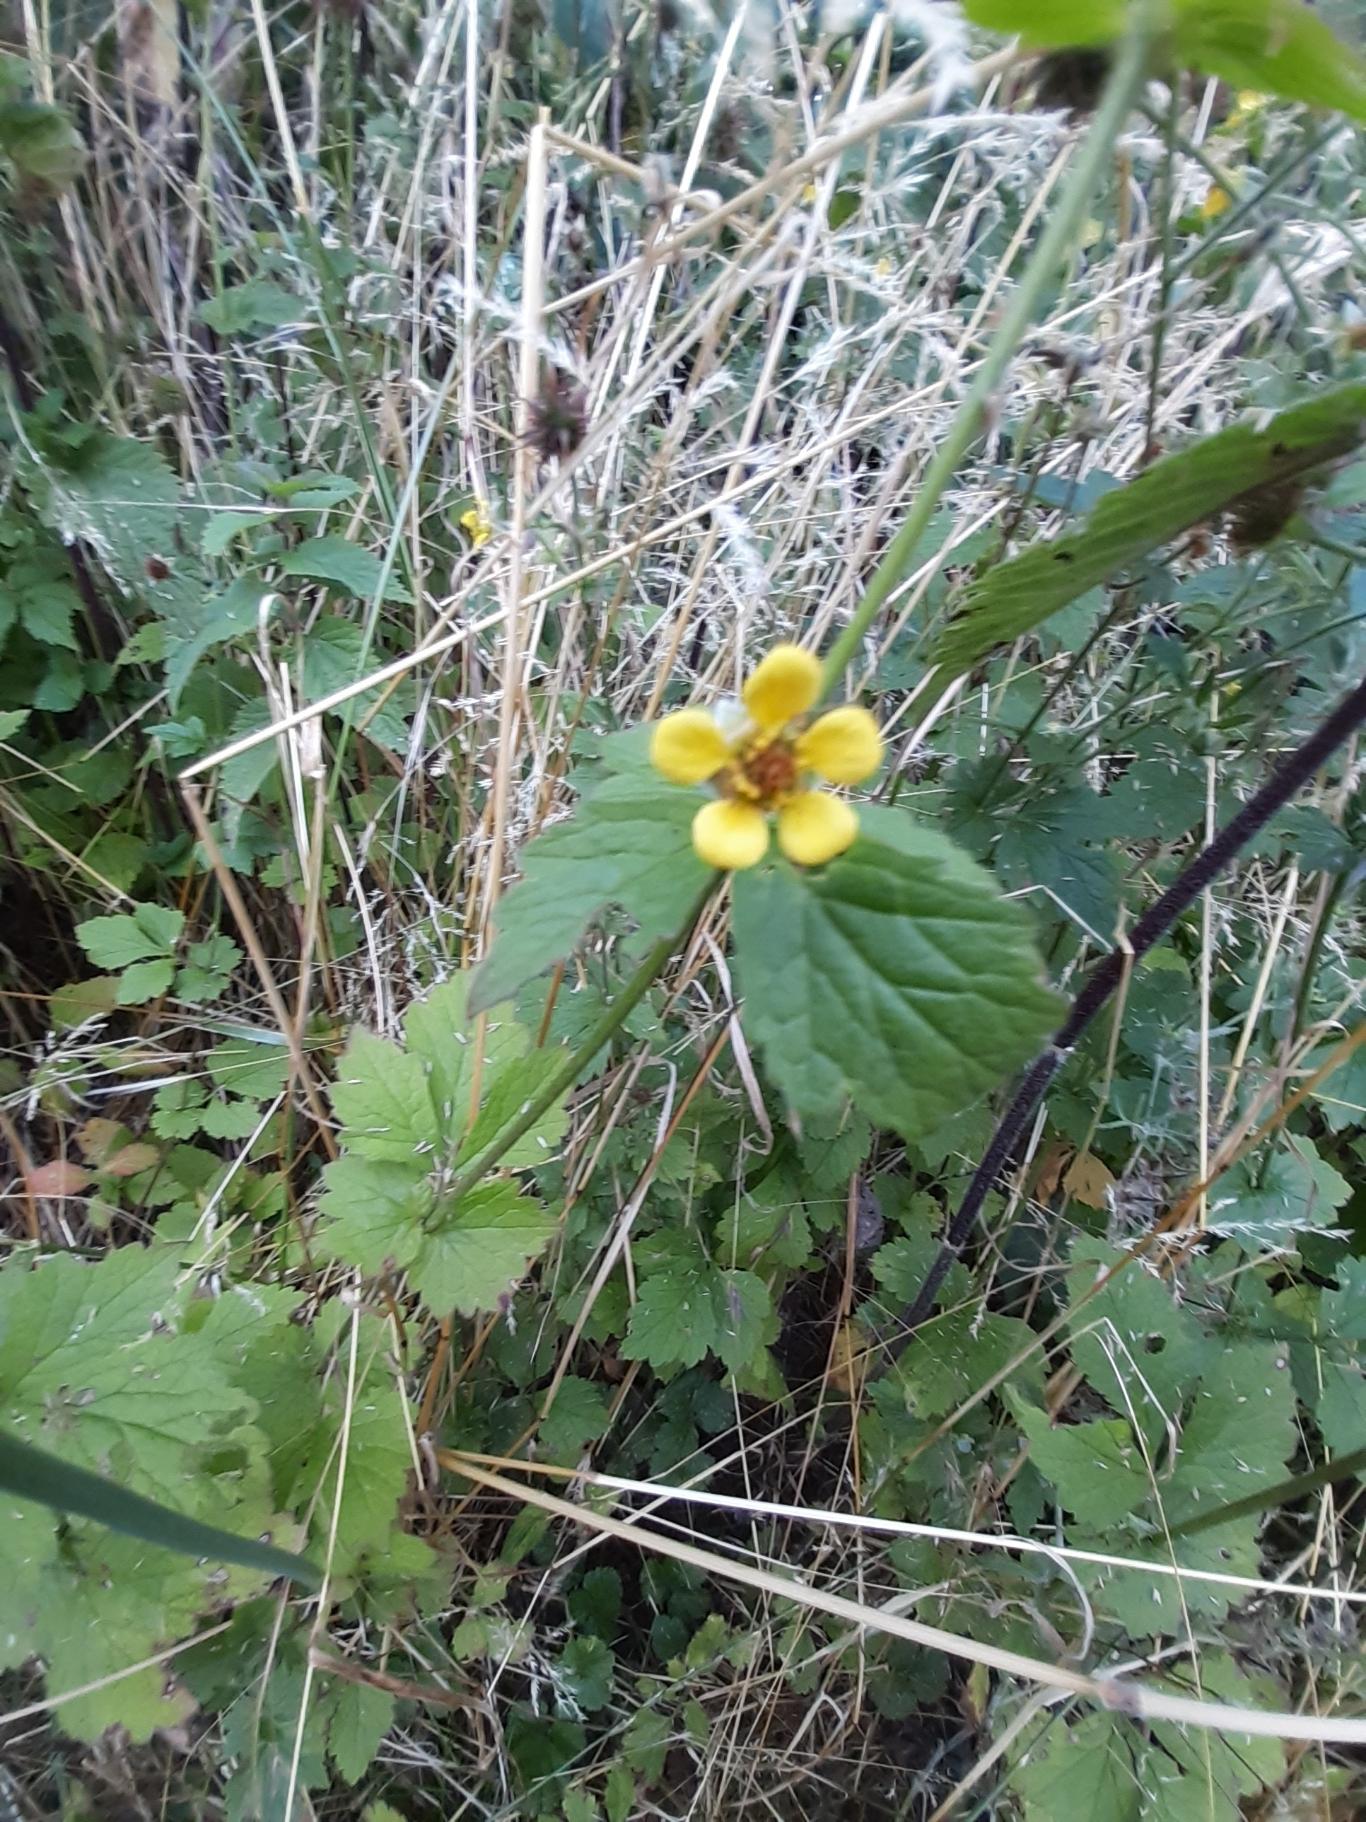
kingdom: Plantae
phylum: Tracheophyta
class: Magnoliopsida
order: Rosales
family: Rosaceae
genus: Geum
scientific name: Geum urbanum
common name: Feber-nellikerod
